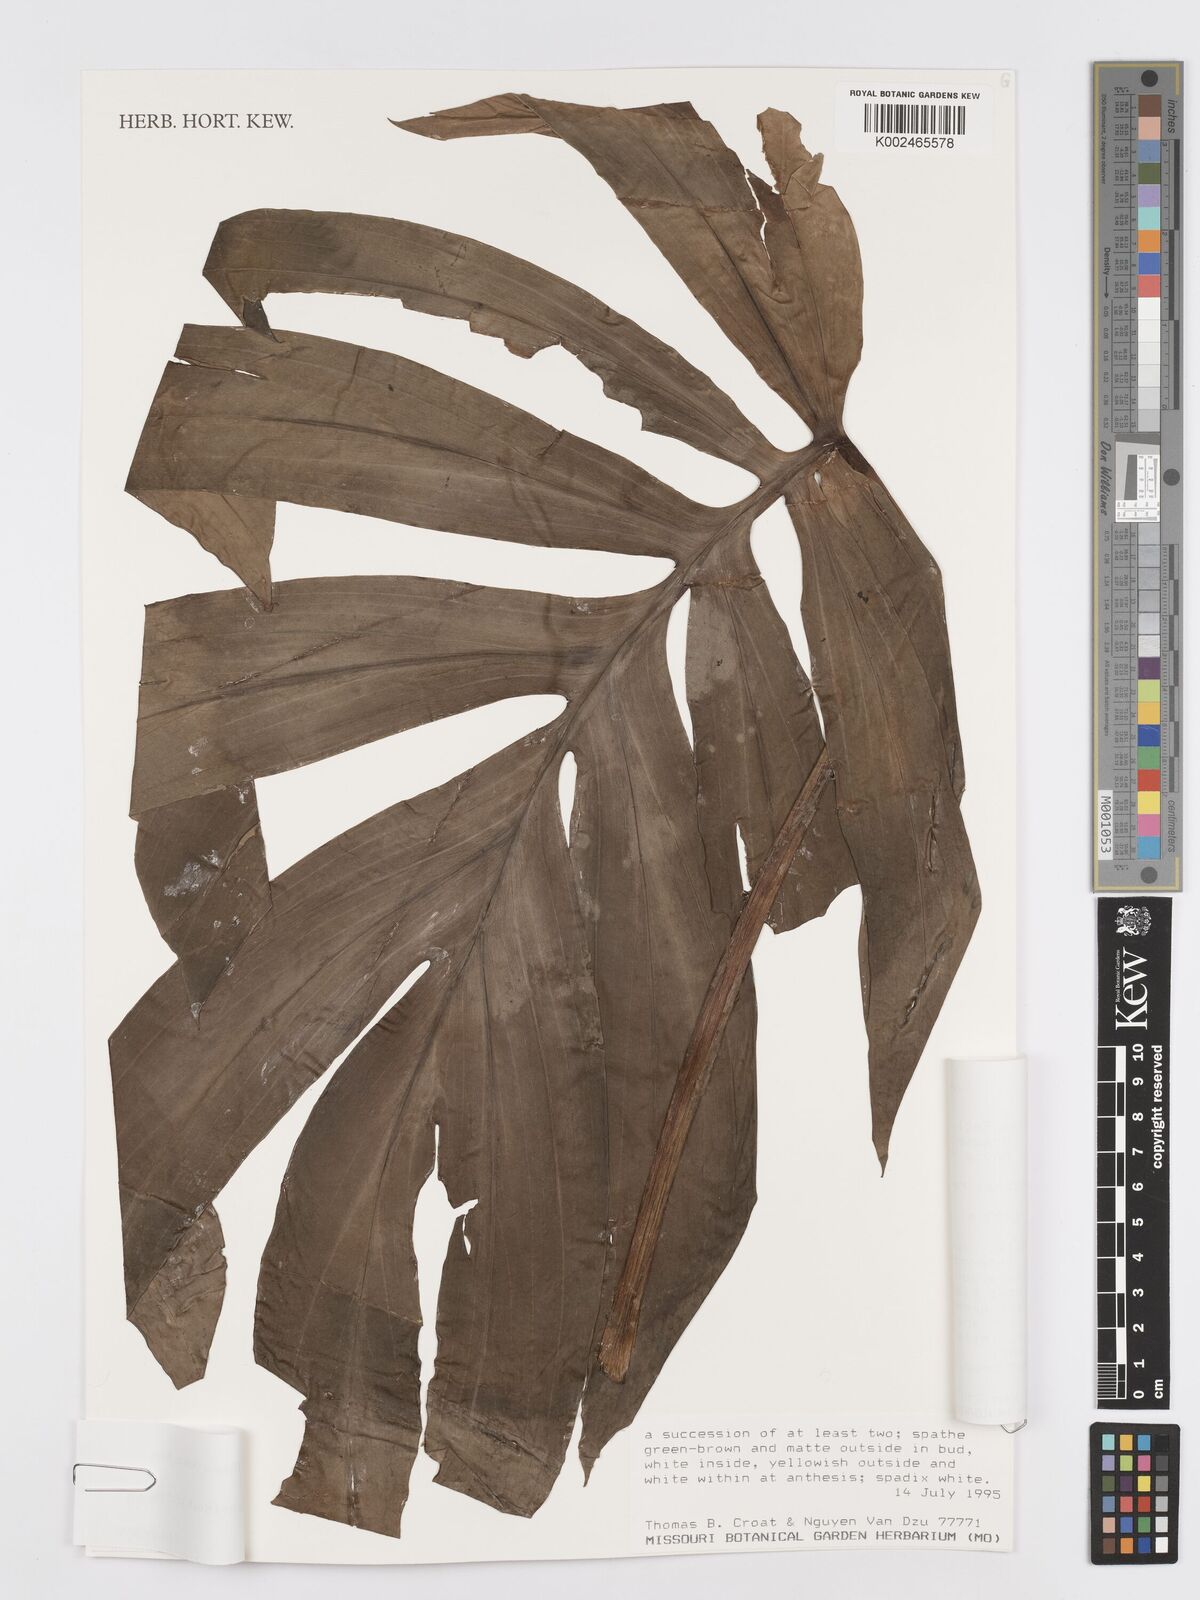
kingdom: Plantae
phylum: Tracheophyta
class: Liliopsida
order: Alismatales
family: Araceae
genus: Rhaphidophora
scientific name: Rhaphidophora decursiva
